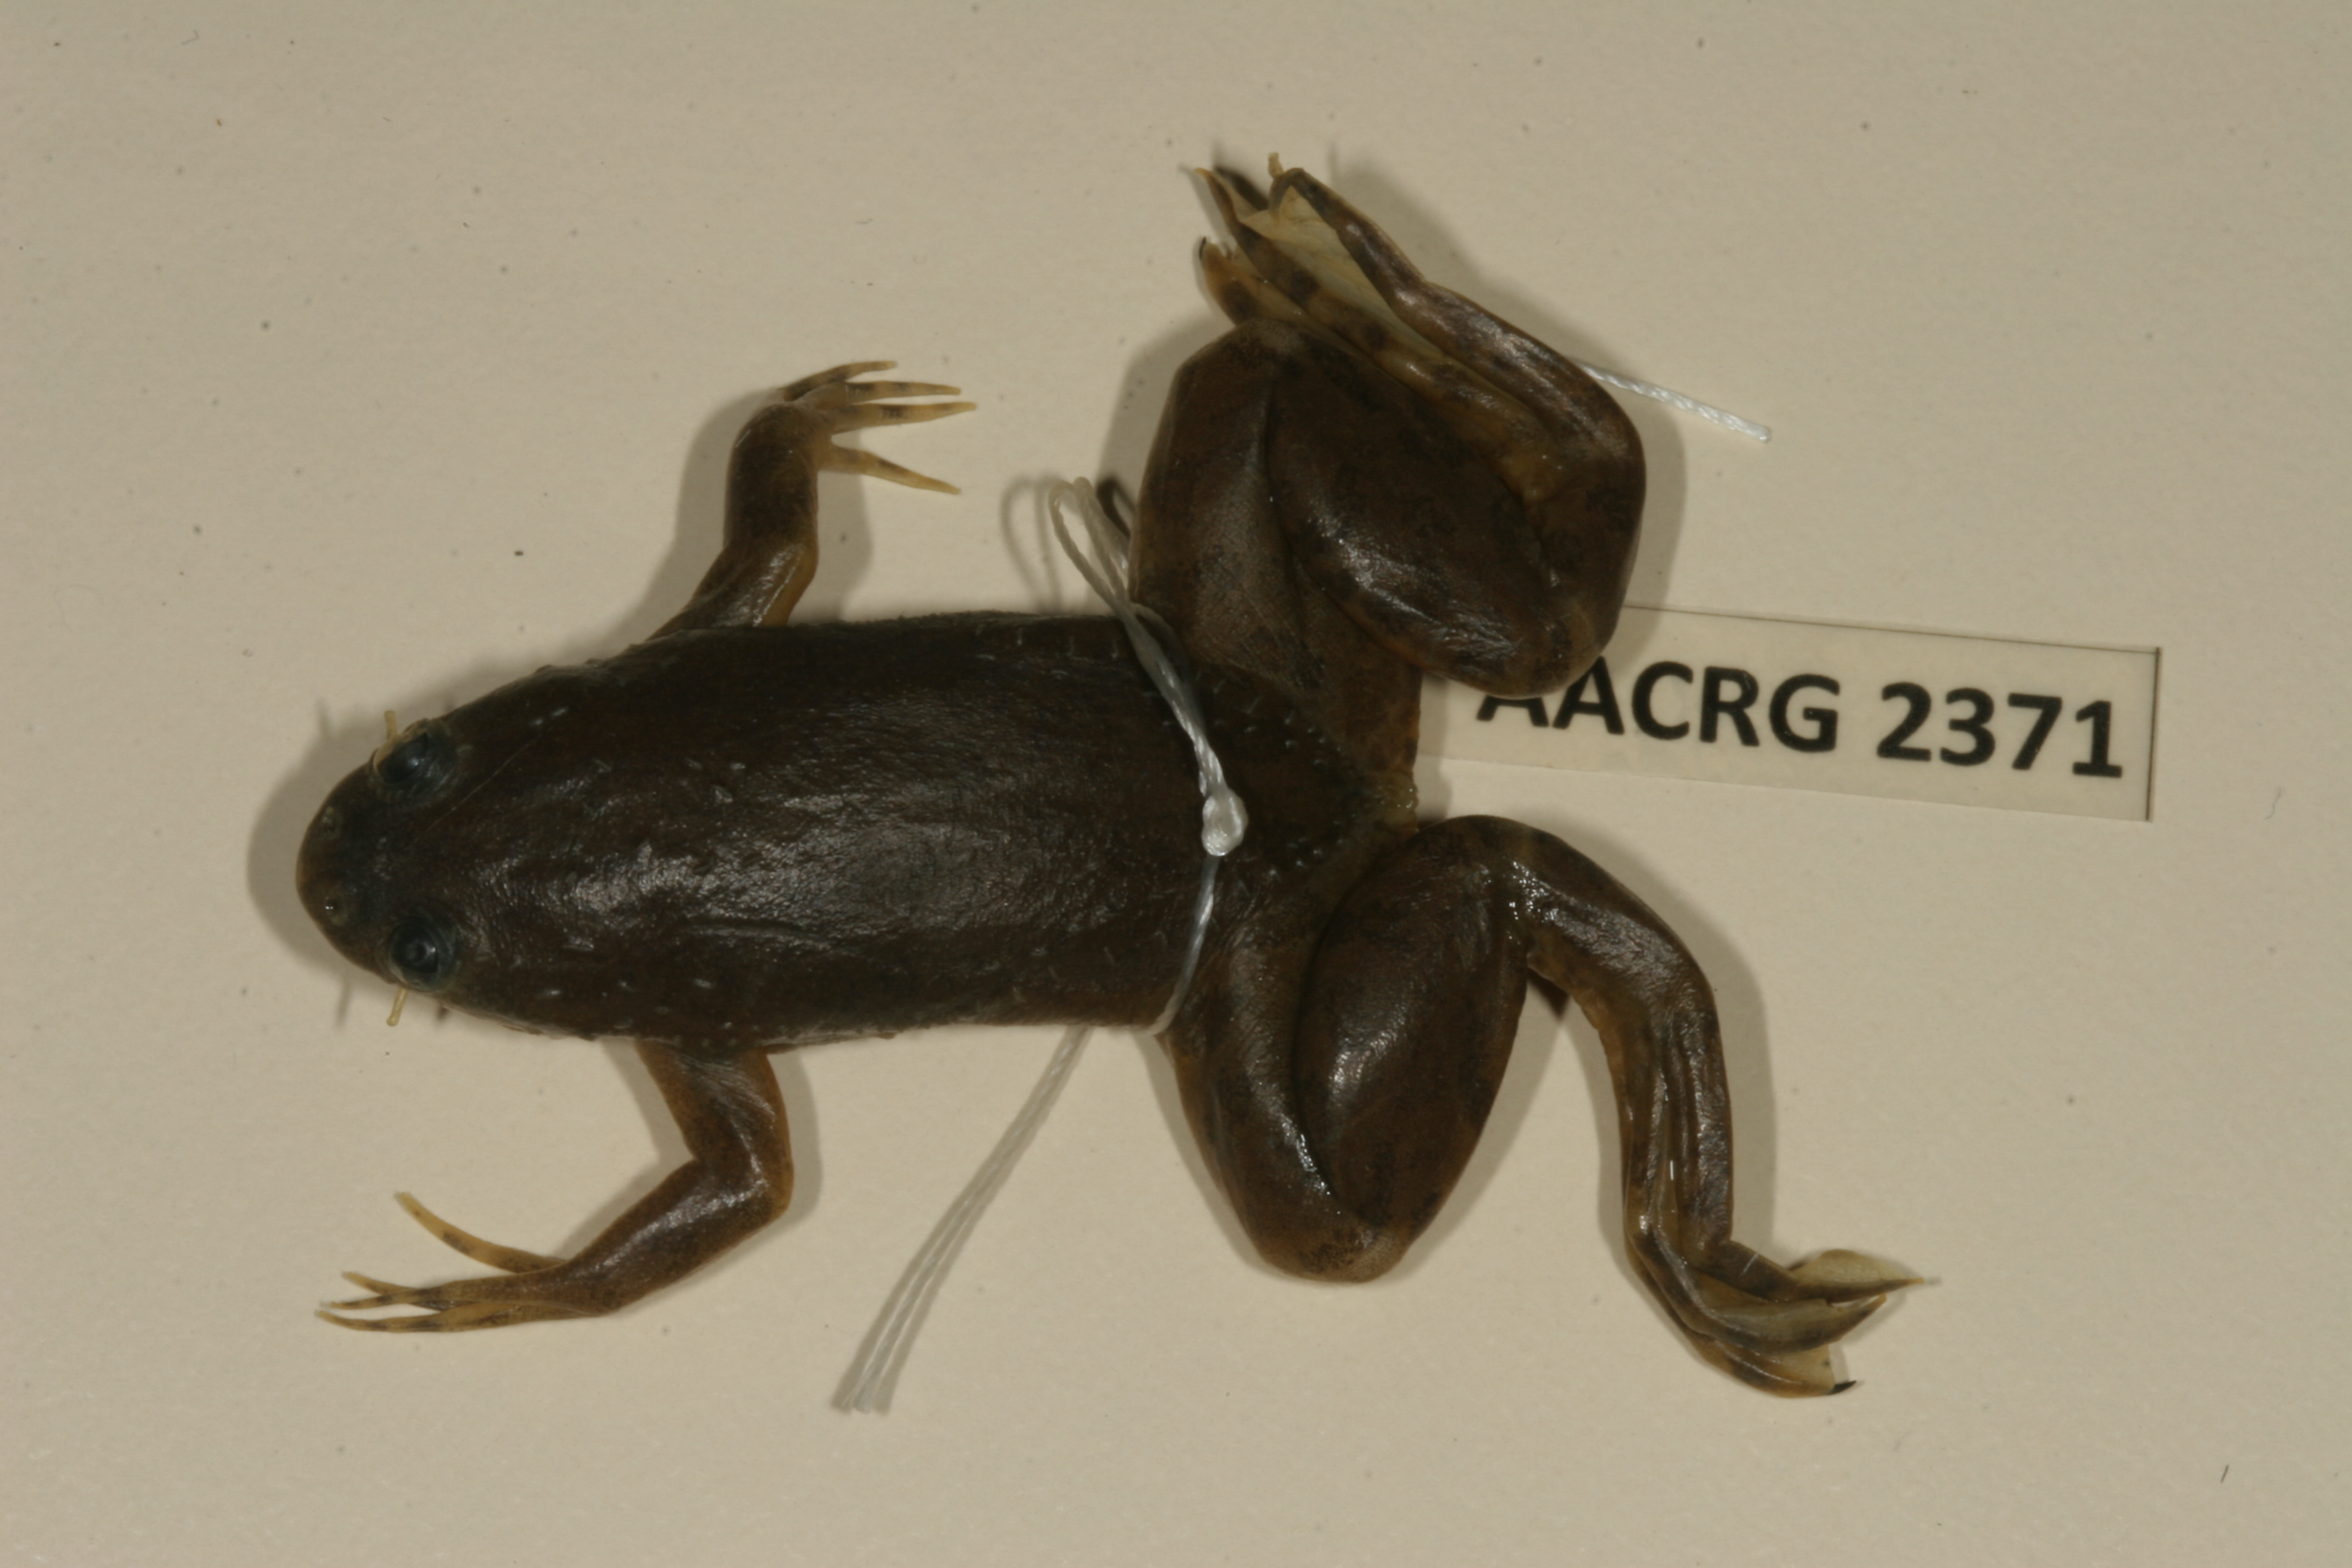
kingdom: Animalia
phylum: Chordata
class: Amphibia
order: Anura
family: Pipidae
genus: Xenopus
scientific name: Xenopus muelleri
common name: Muller's clawed frog
